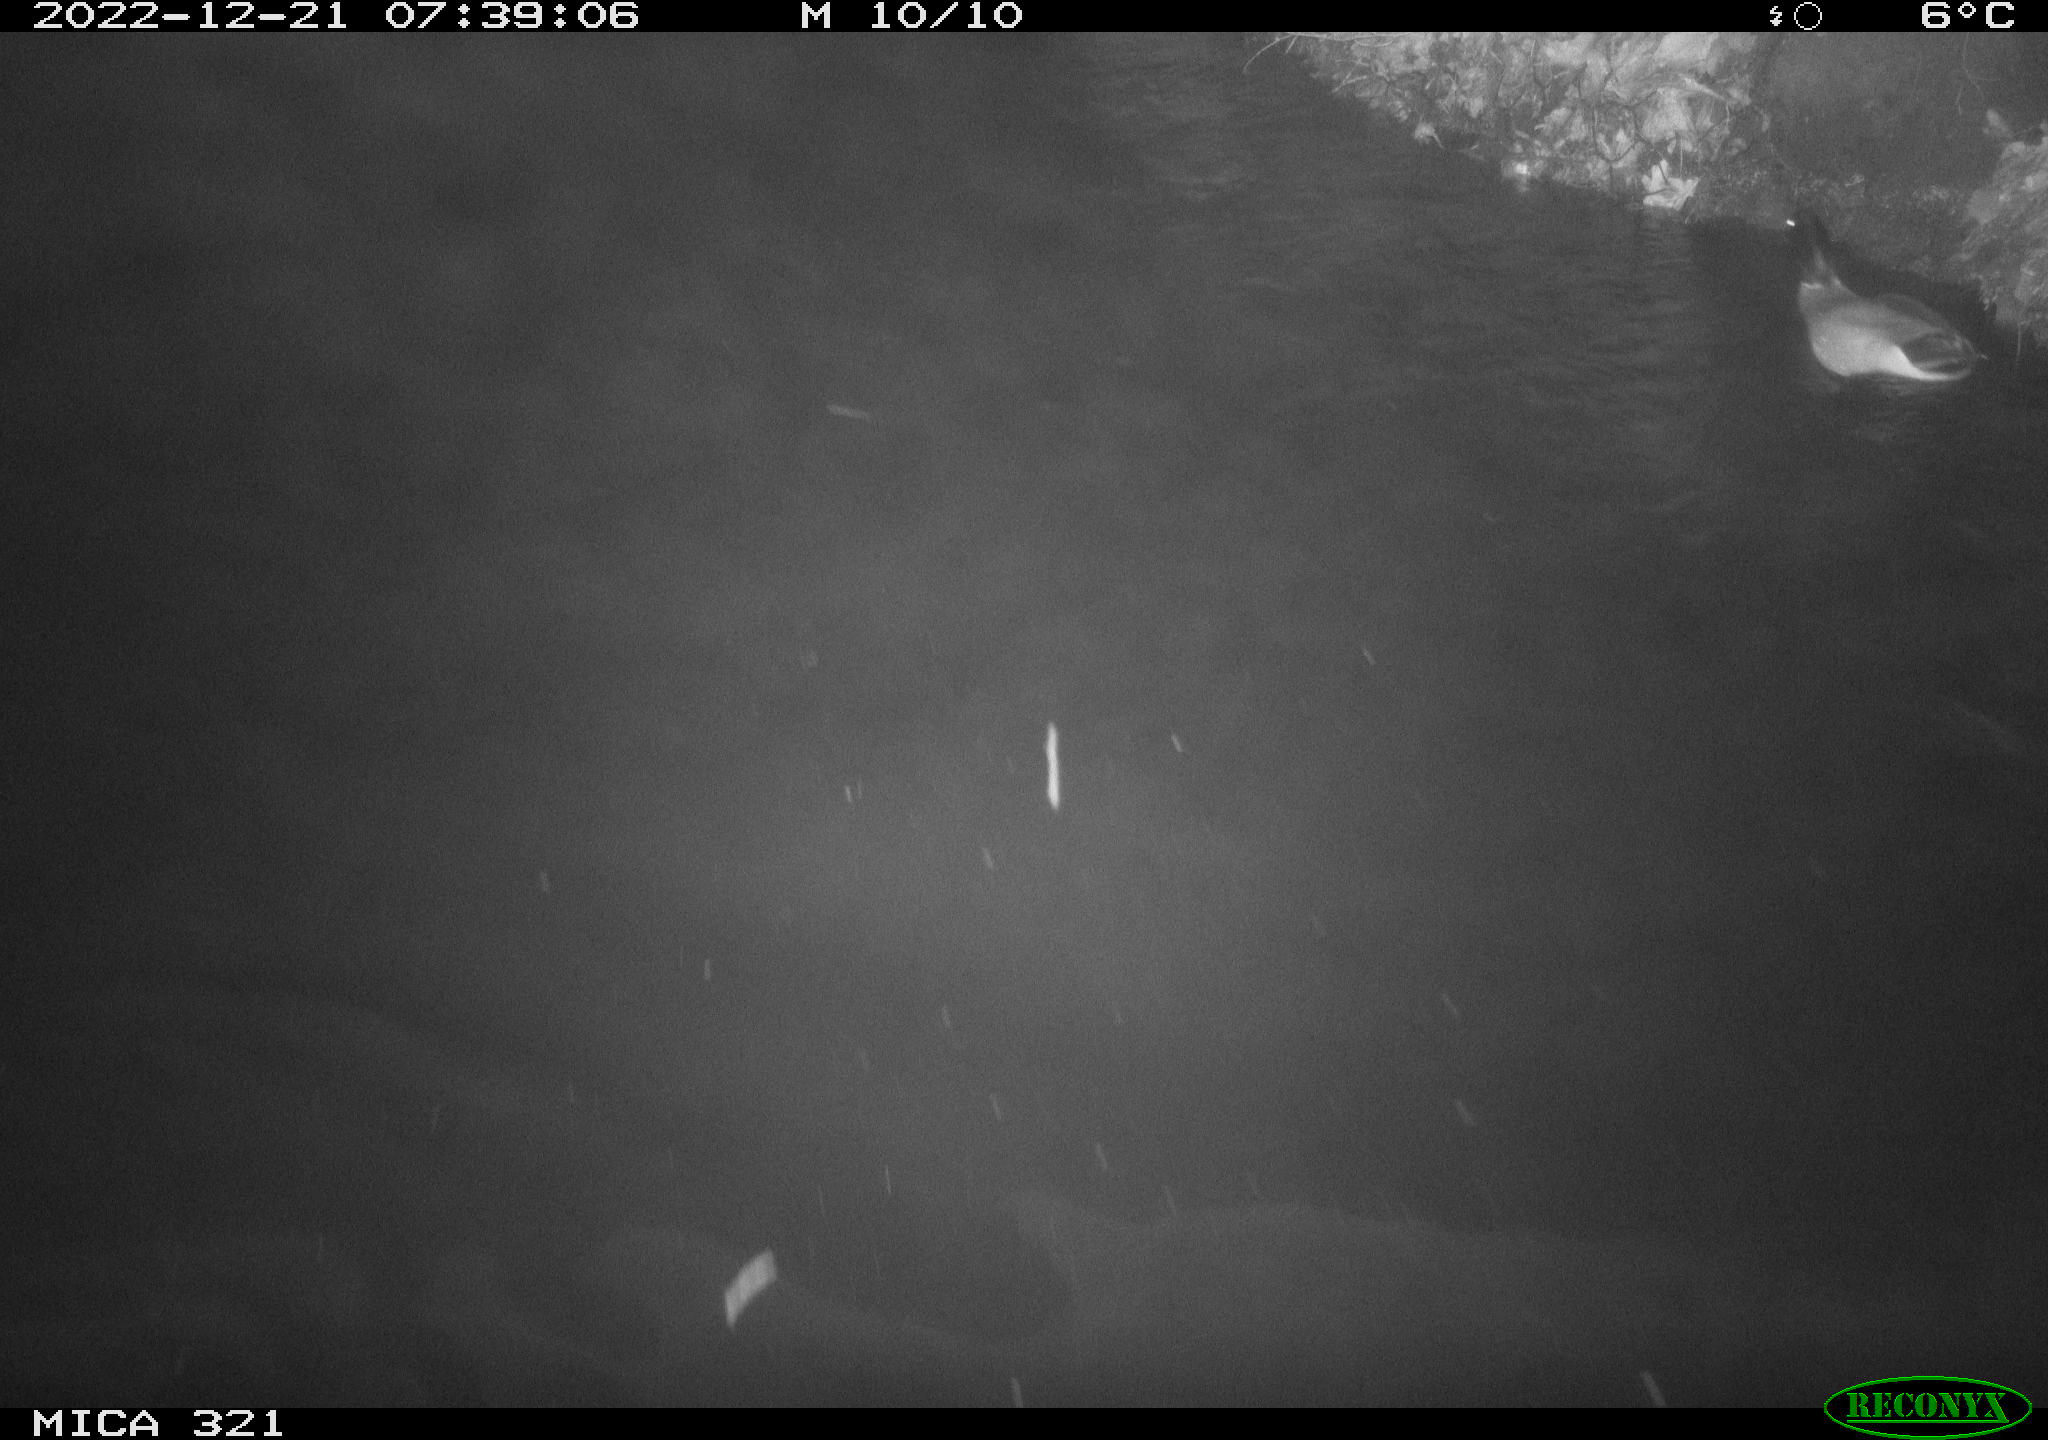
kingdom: Animalia
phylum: Chordata
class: Aves
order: Anseriformes
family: Anatidae
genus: Anas
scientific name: Anas
